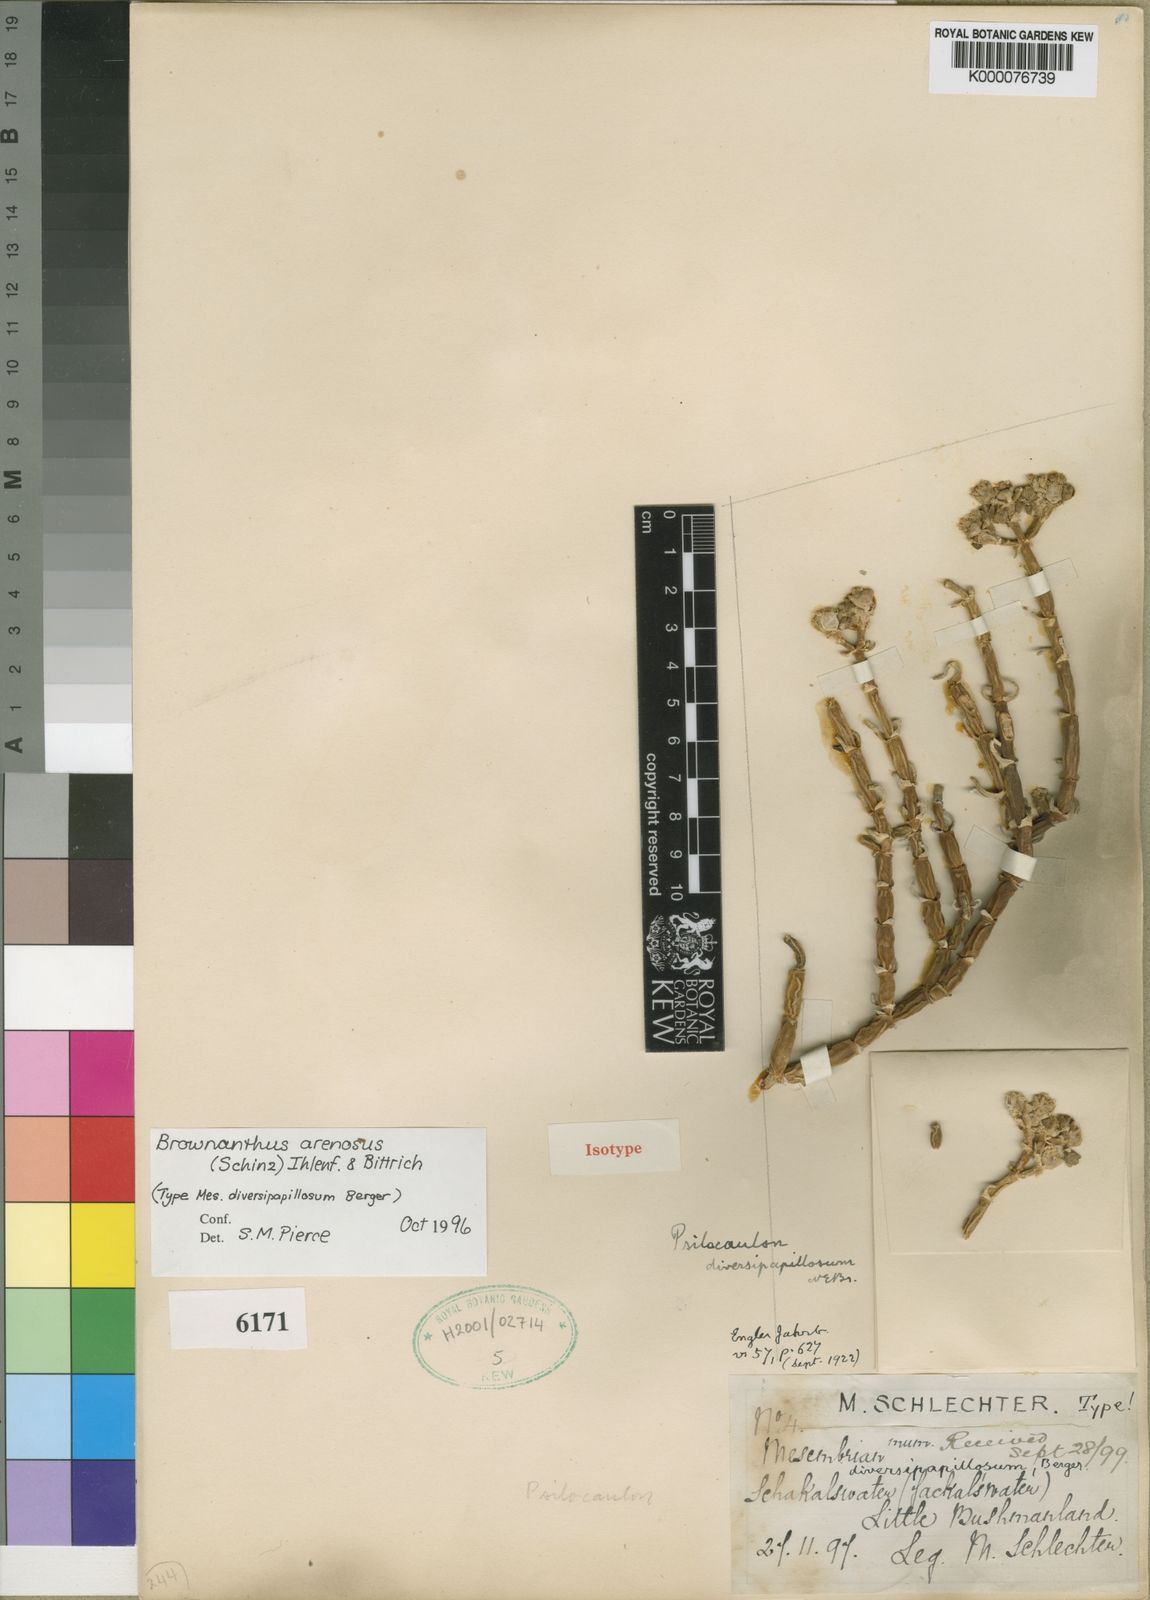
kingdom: Plantae
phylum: Tracheophyta
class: Magnoliopsida
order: Caryophyllales
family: Aizoaceae
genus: Mesembryanthemum
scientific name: Mesembryanthemum schlichtianum
